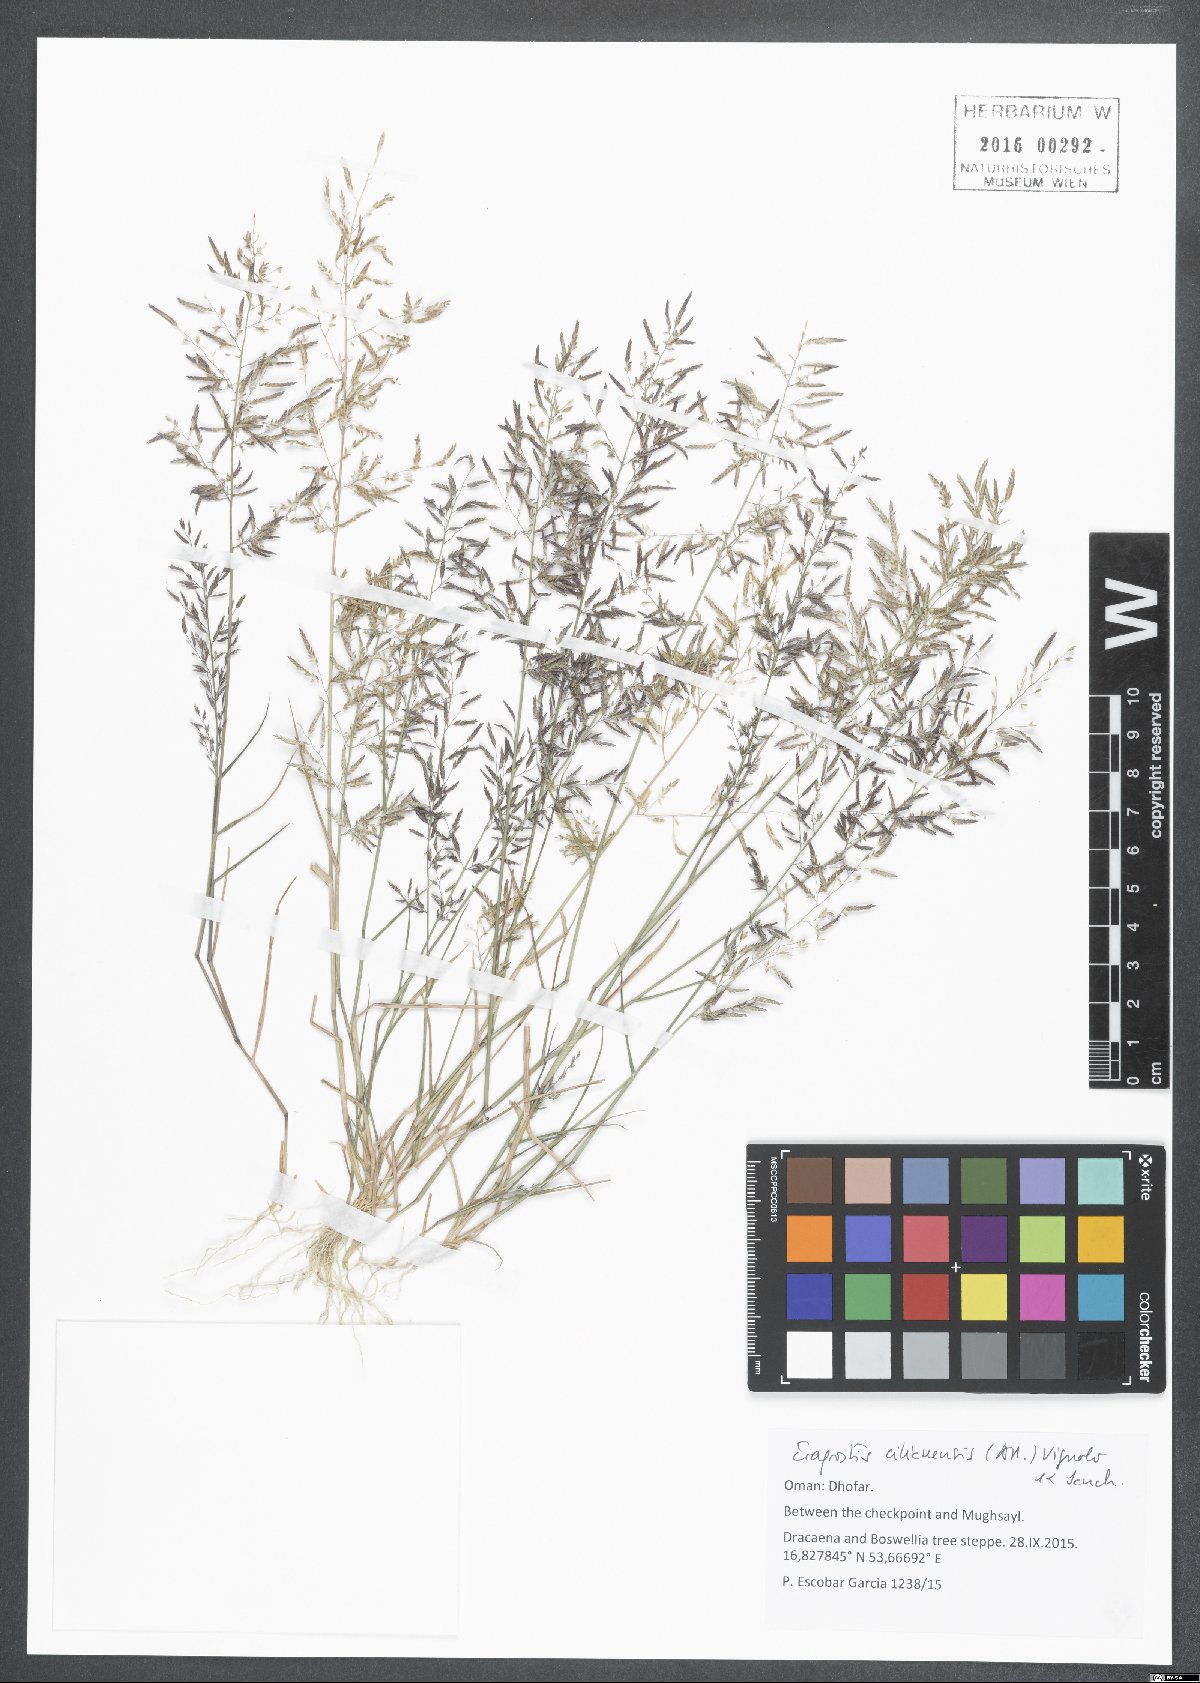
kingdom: Plantae
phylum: Tracheophyta
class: Liliopsida
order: Poales
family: Poaceae
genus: Eragrostis
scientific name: Eragrostis cilianensis
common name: Stinkgrass
